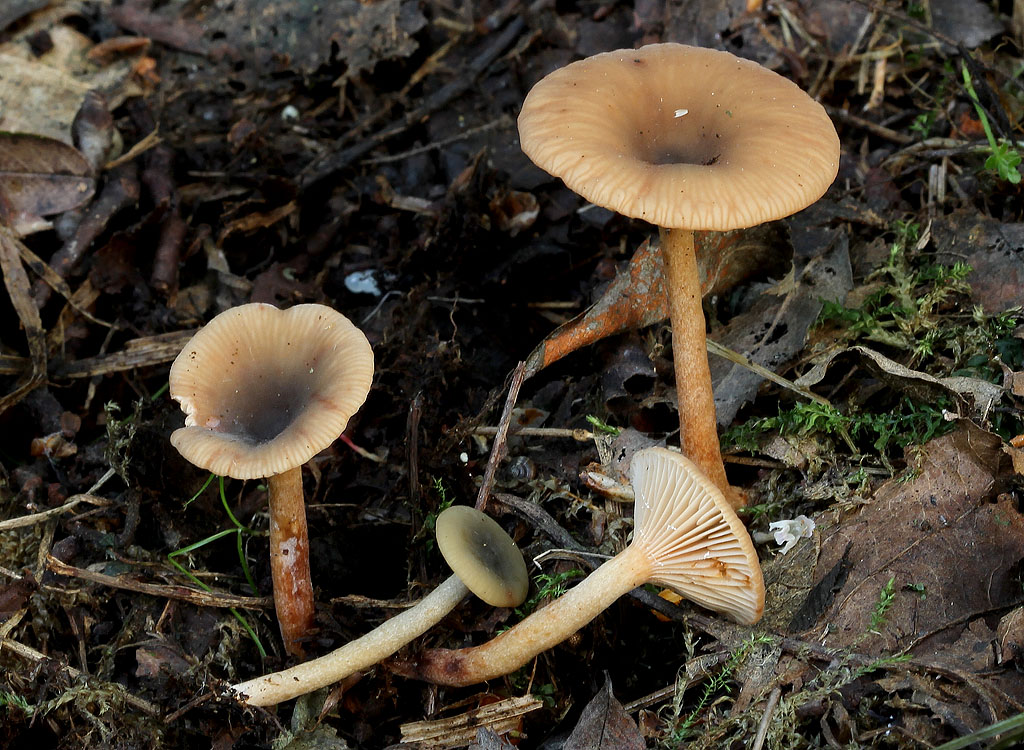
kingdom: Fungi
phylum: Basidiomycota
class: Agaricomycetes
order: Russulales
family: Russulaceae
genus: Lactarius
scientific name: Lactarius cyathuliformis
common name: mørkøjet mælkehat
